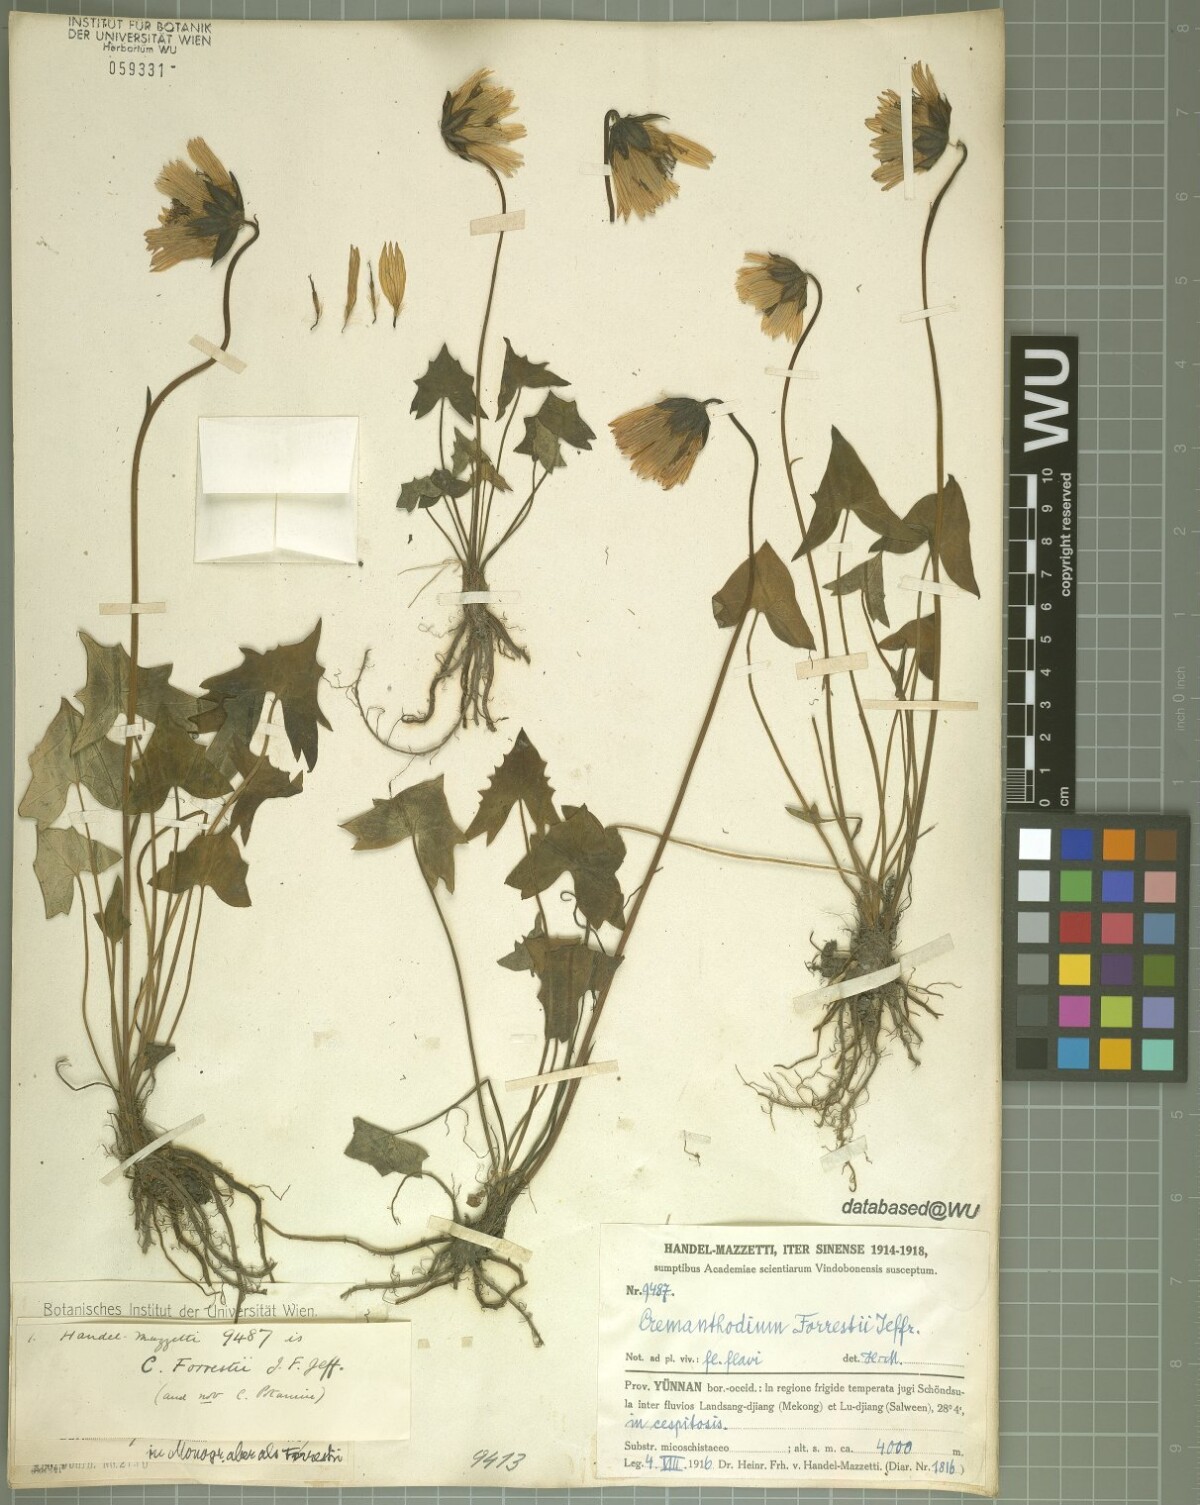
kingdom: Plantae
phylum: Tracheophyta
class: Magnoliopsida
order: Asterales
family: Asteraceae
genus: Cremanthodium
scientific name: Cremanthodium forrestii
